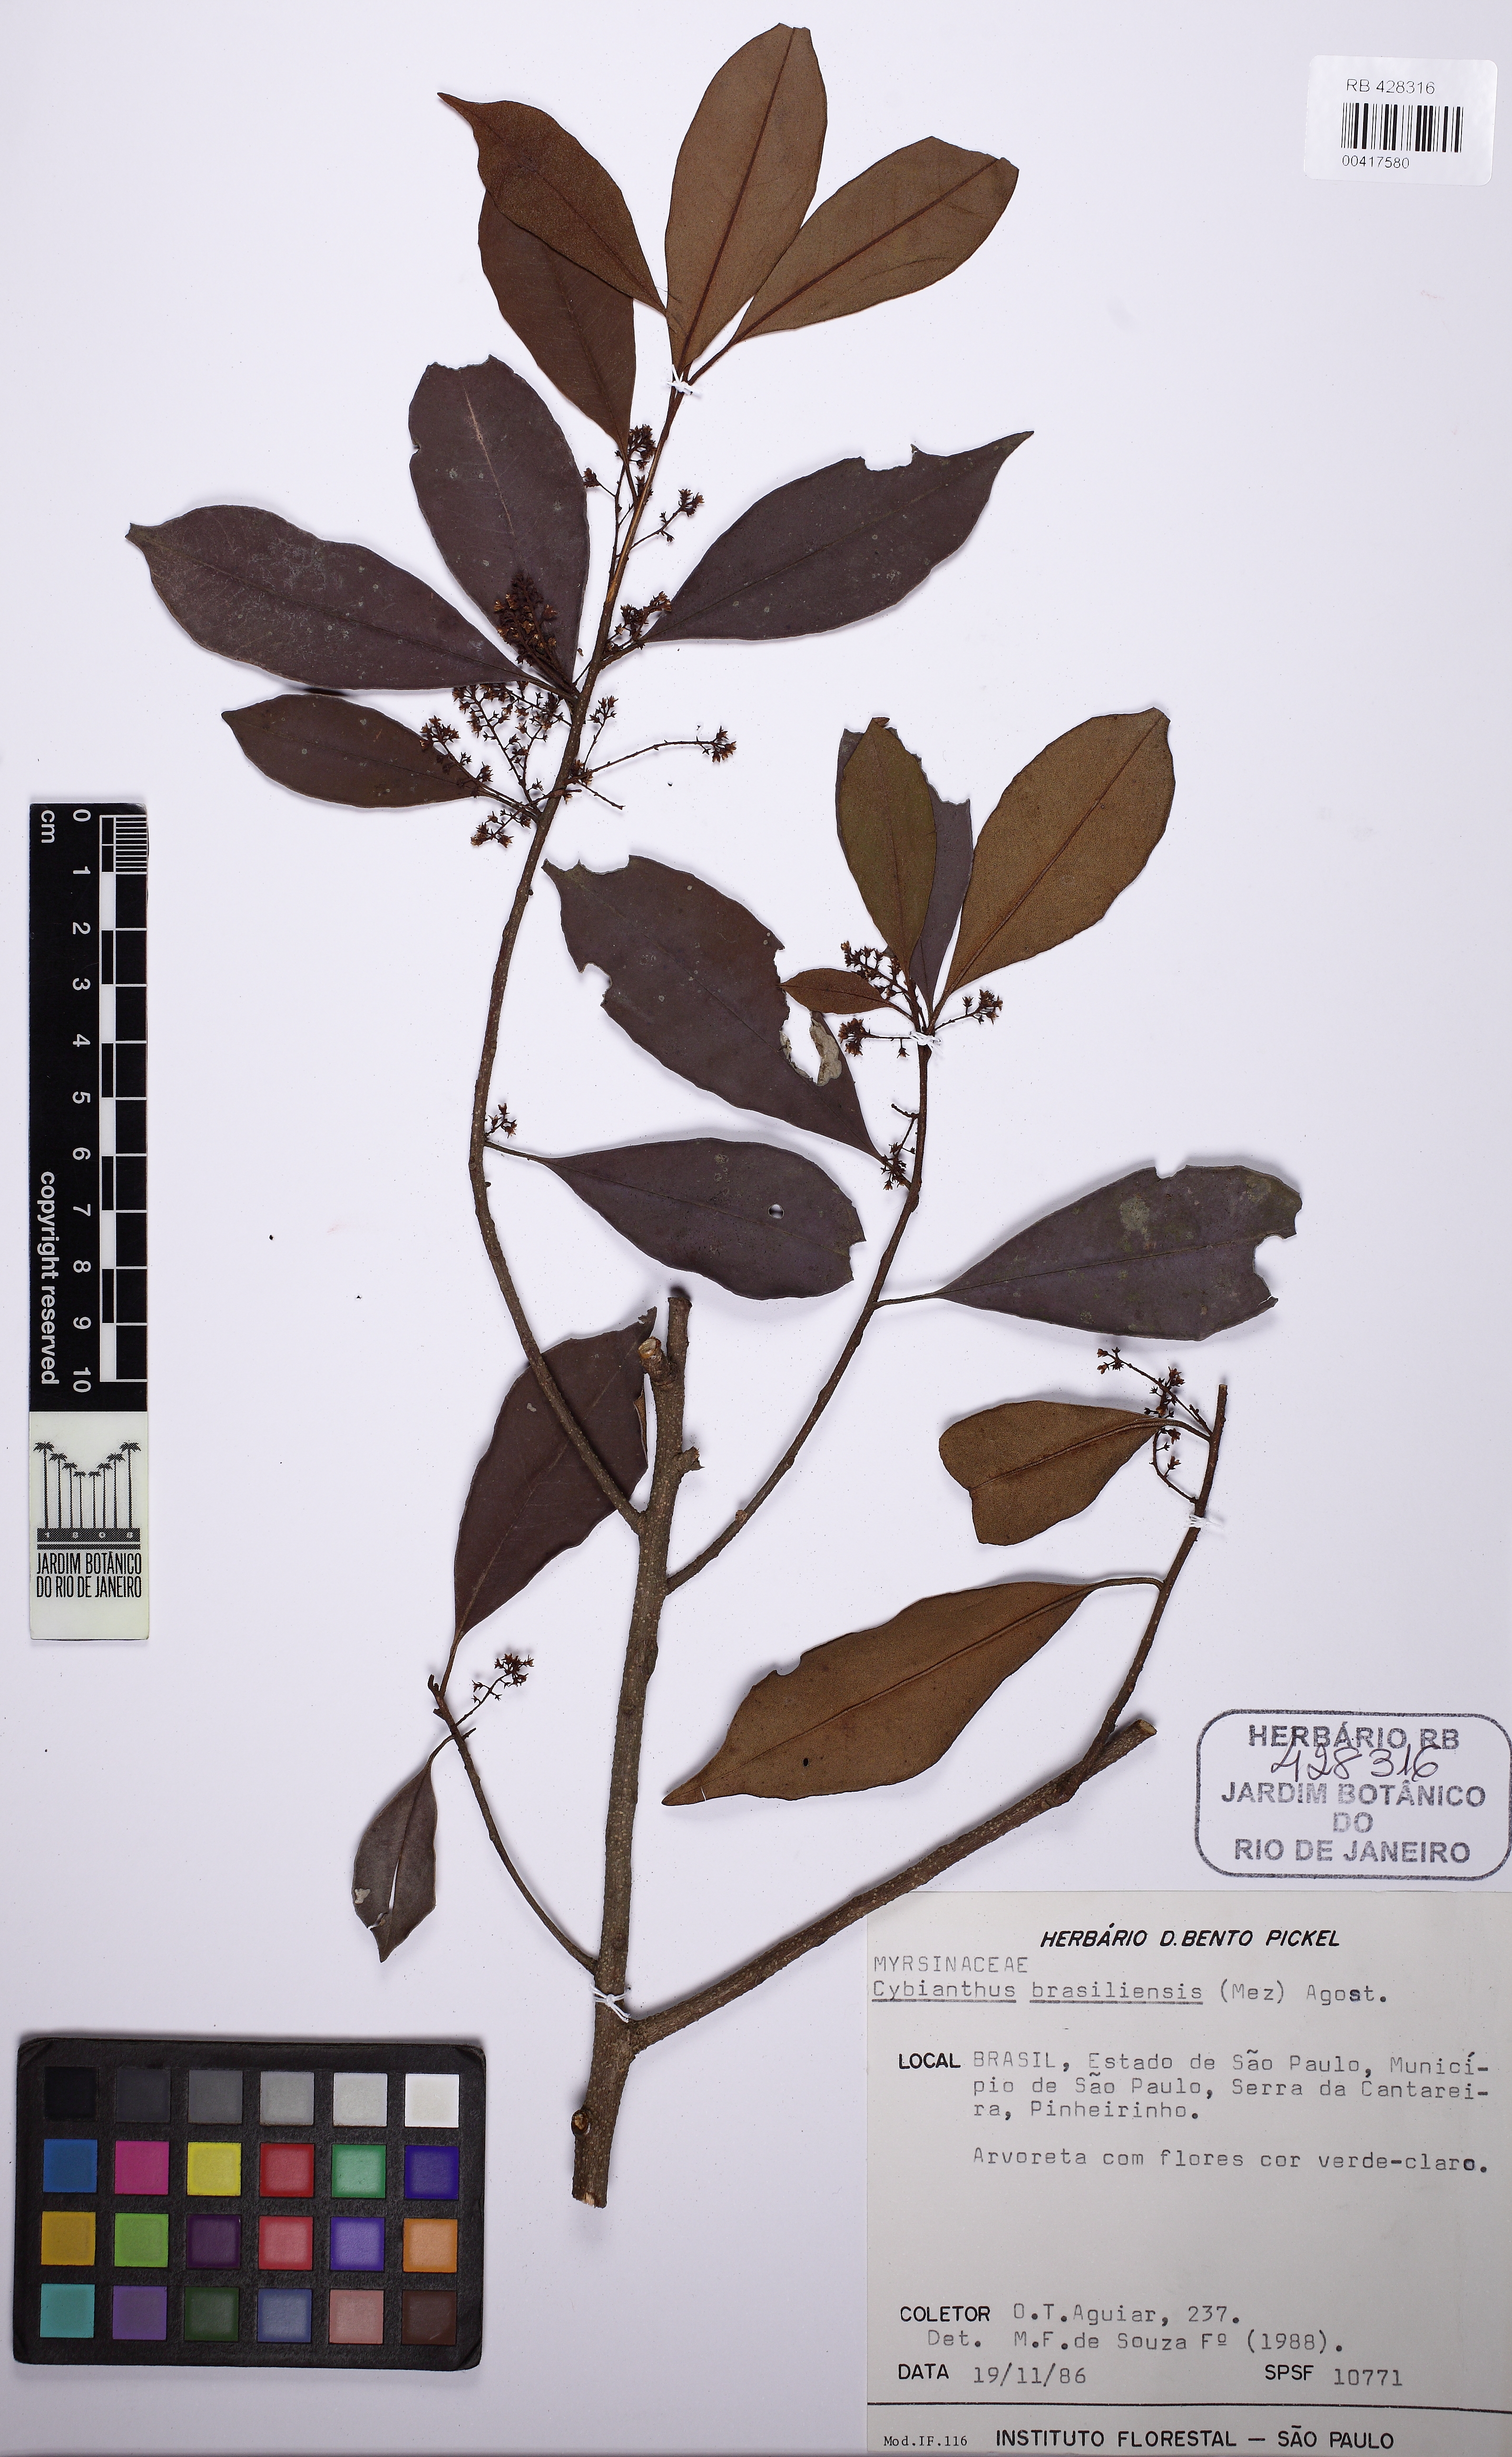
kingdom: Plantae
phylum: Tracheophyta
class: Magnoliopsida
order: Ericales
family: Primulaceae
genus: Cybianthus
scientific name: Cybianthus peruvianus
